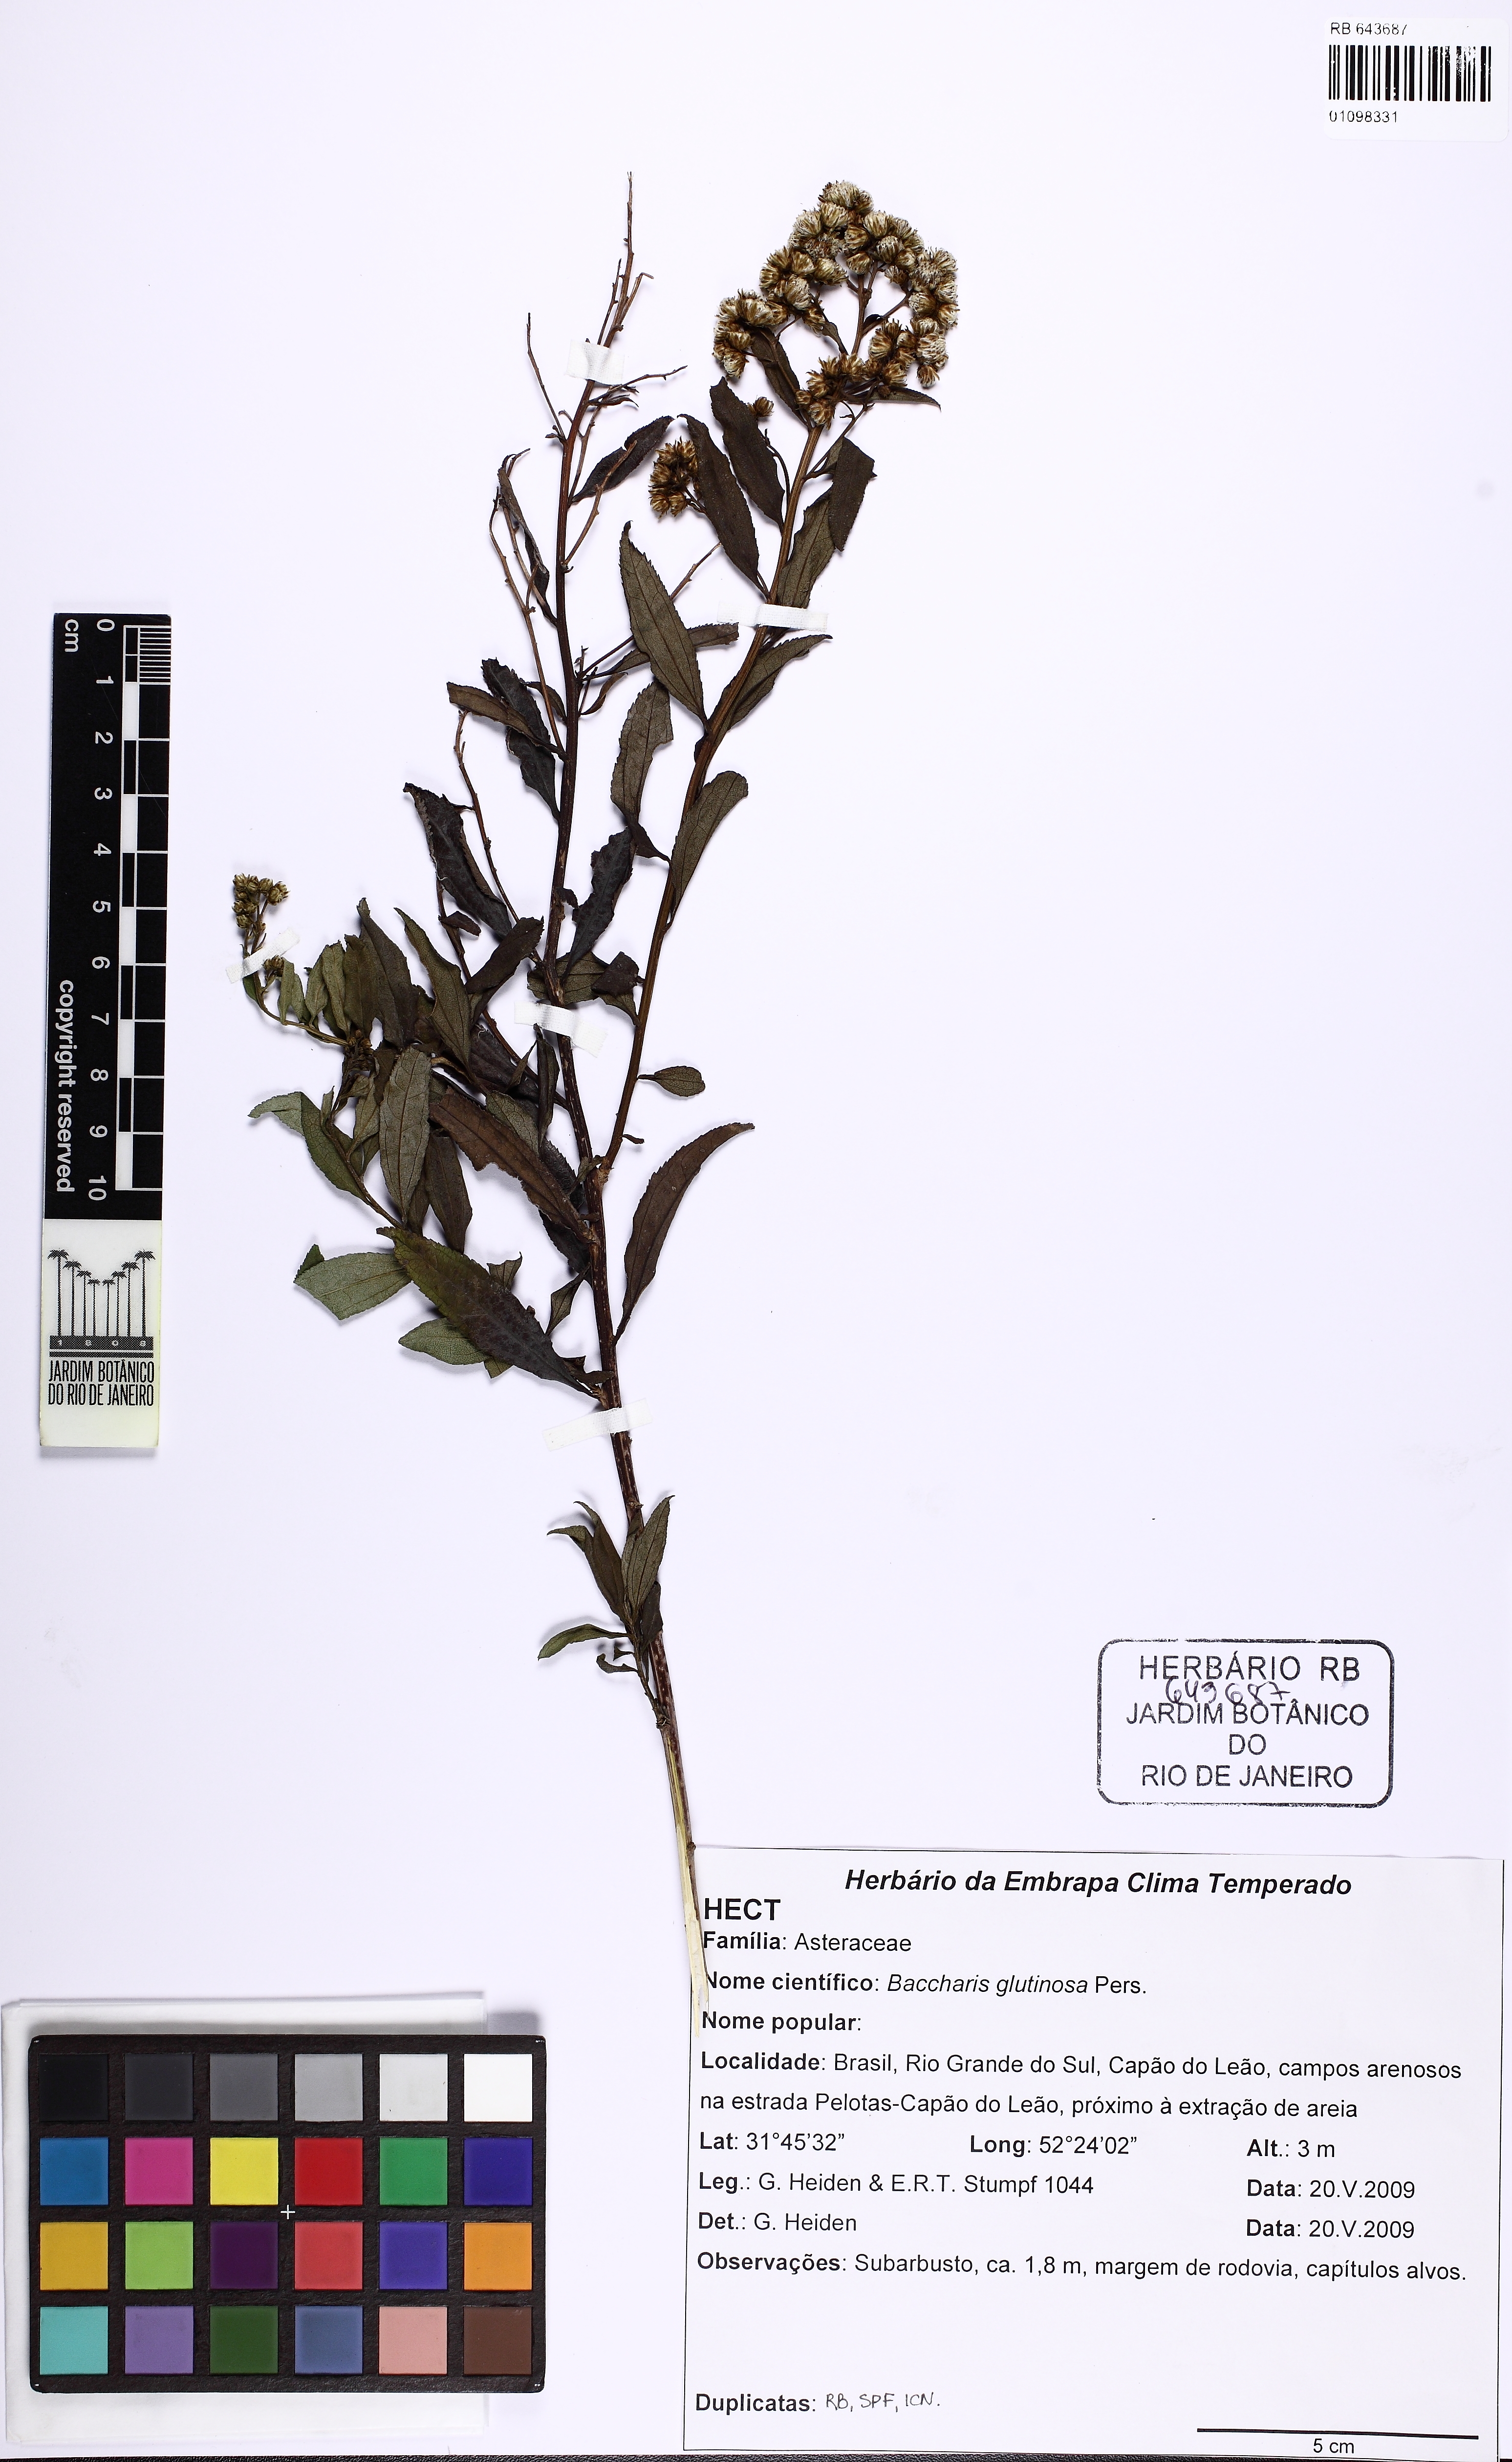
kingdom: Plantae
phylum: Tracheophyta
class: Magnoliopsida
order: Asterales
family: Asteraceae
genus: Baccharis
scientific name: Baccharis glutinosa
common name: Saltmarsh baccharis
